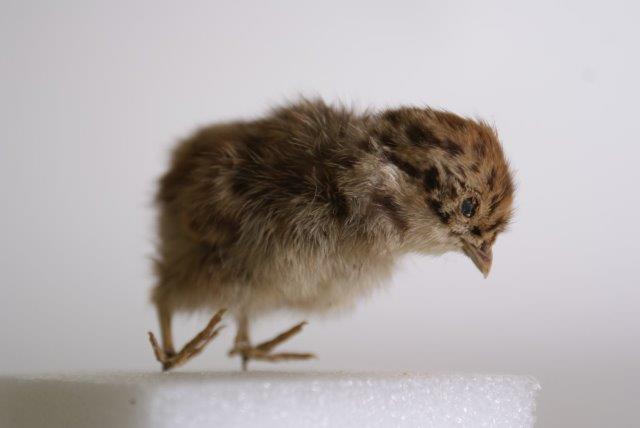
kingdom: Animalia
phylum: Chordata
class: Aves
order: Galliformes
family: Phasianidae
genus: Perdix
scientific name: Perdix perdix
